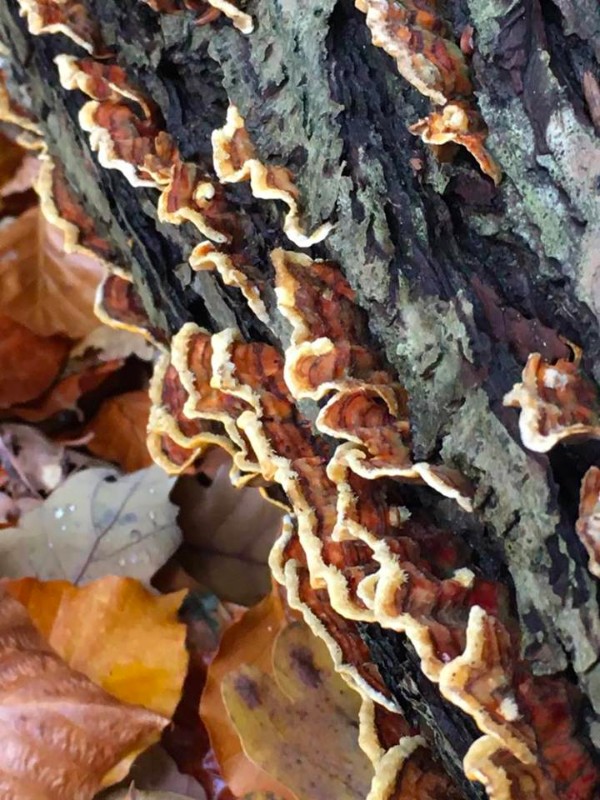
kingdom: Fungi
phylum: Basidiomycota
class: Agaricomycetes
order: Russulales
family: Stereaceae
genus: Stereum
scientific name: Stereum subtomentosum
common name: smuk lædersvamp
